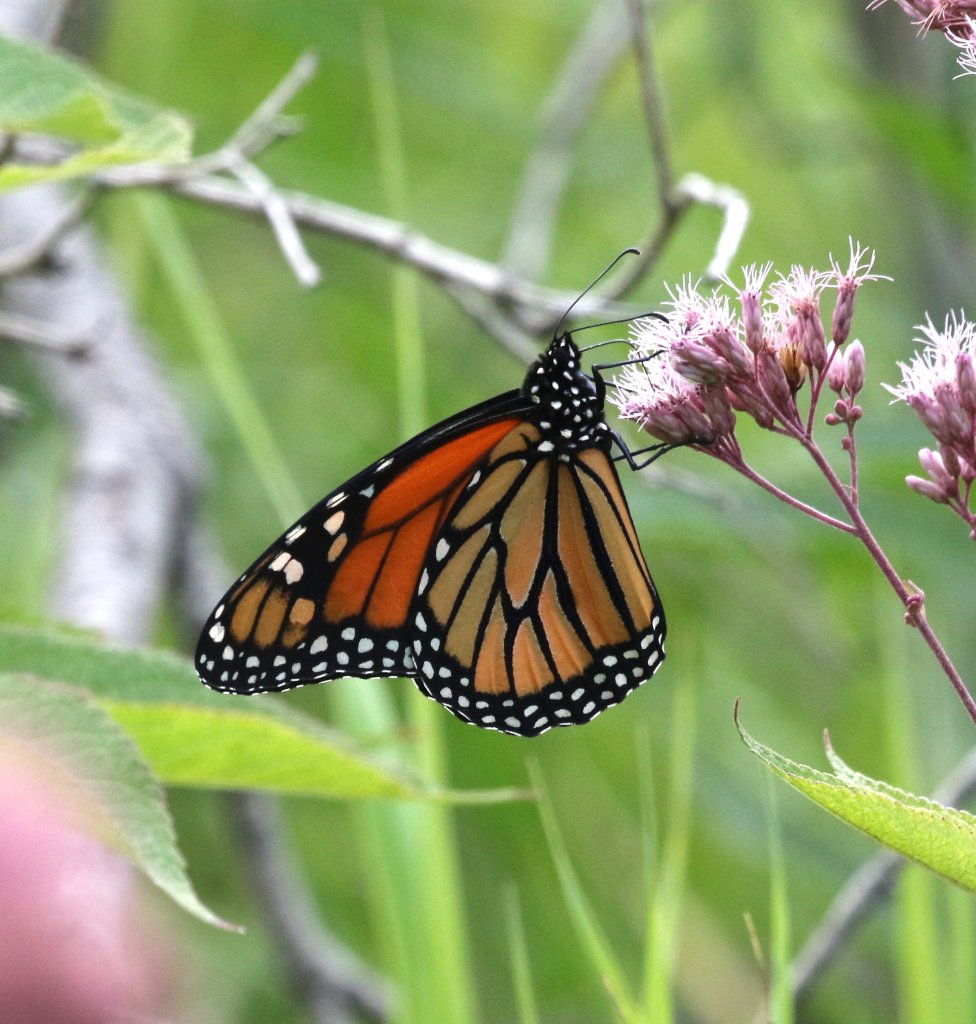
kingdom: Animalia
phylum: Arthropoda
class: Insecta
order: Lepidoptera
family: Nymphalidae
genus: Danaus
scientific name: Danaus plexippus
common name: Monarch
